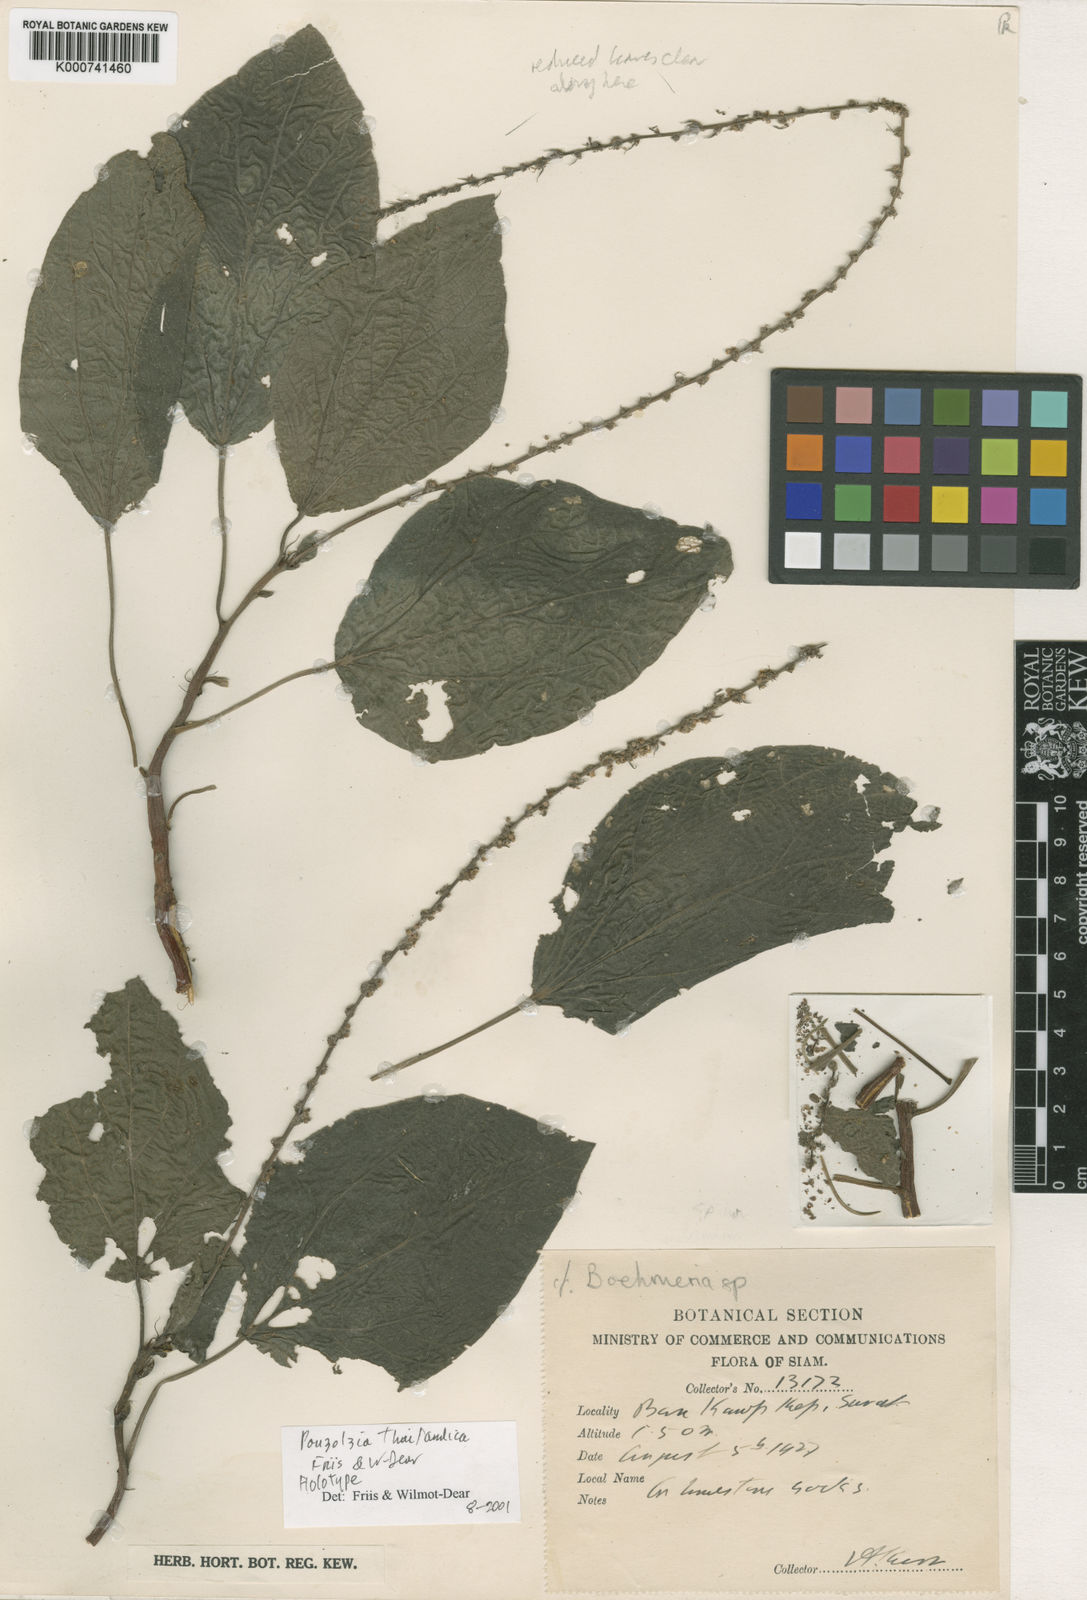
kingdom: Plantae
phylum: Tracheophyta
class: Magnoliopsida
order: Rosales
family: Urticaceae
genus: Pouzolzia
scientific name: Pouzolzia thailandica
